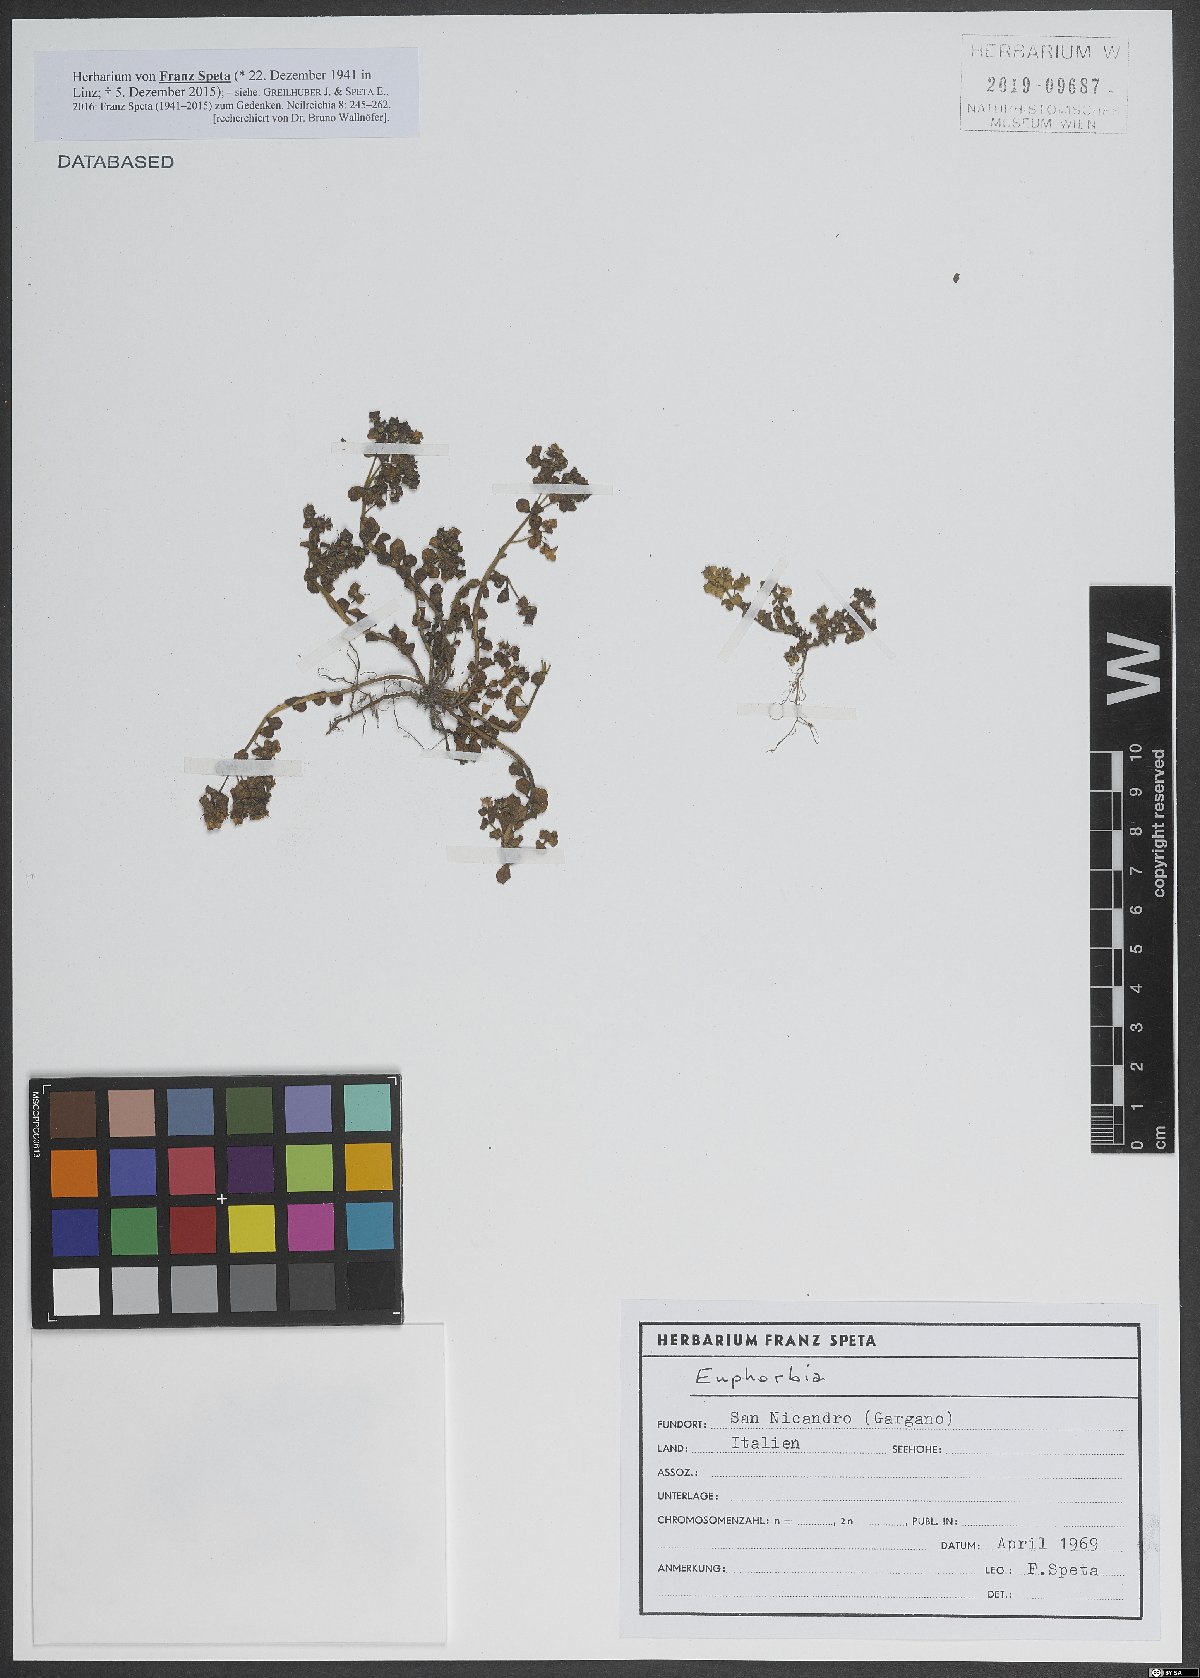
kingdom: Plantae
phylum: Tracheophyta
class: Magnoliopsida
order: Malpighiales
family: Euphorbiaceae
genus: Euphorbia
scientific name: Euphorbia
